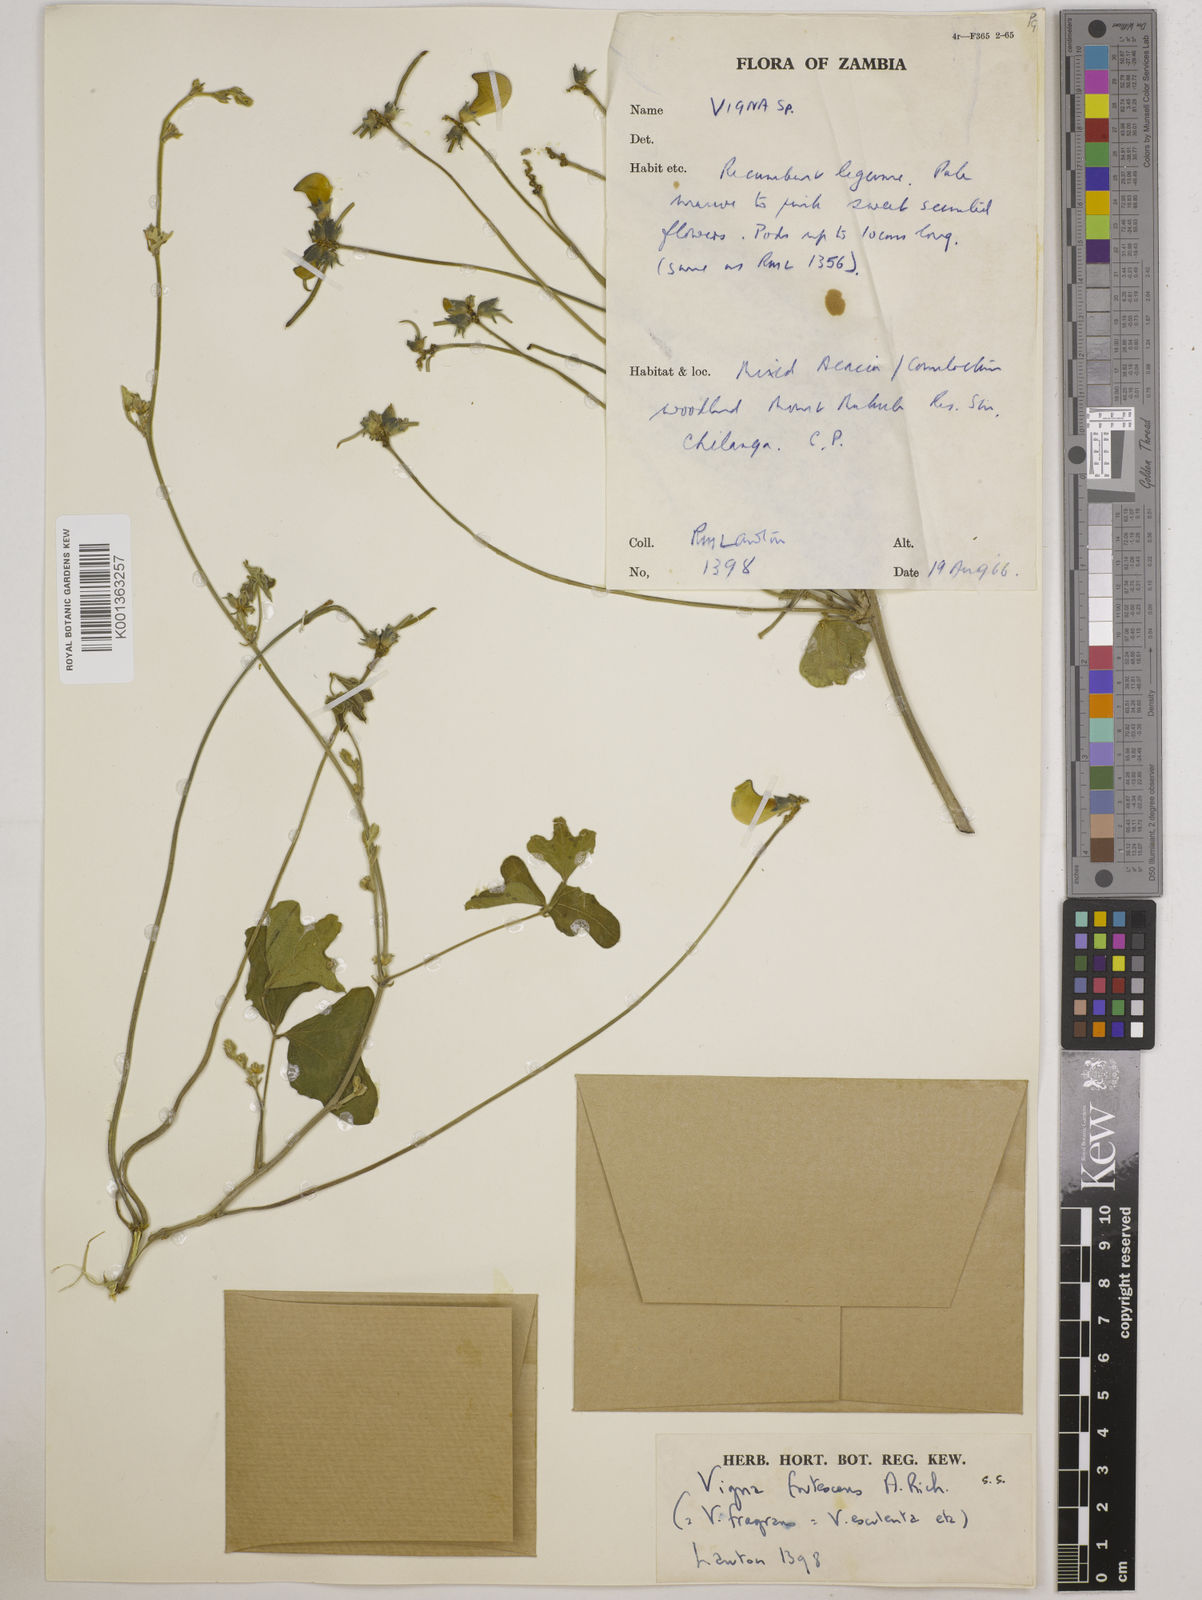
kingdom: Plantae
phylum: Tracheophyta
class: Magnoliopsida
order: Fabales
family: Fabaceae
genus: Vigna
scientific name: Vigna
